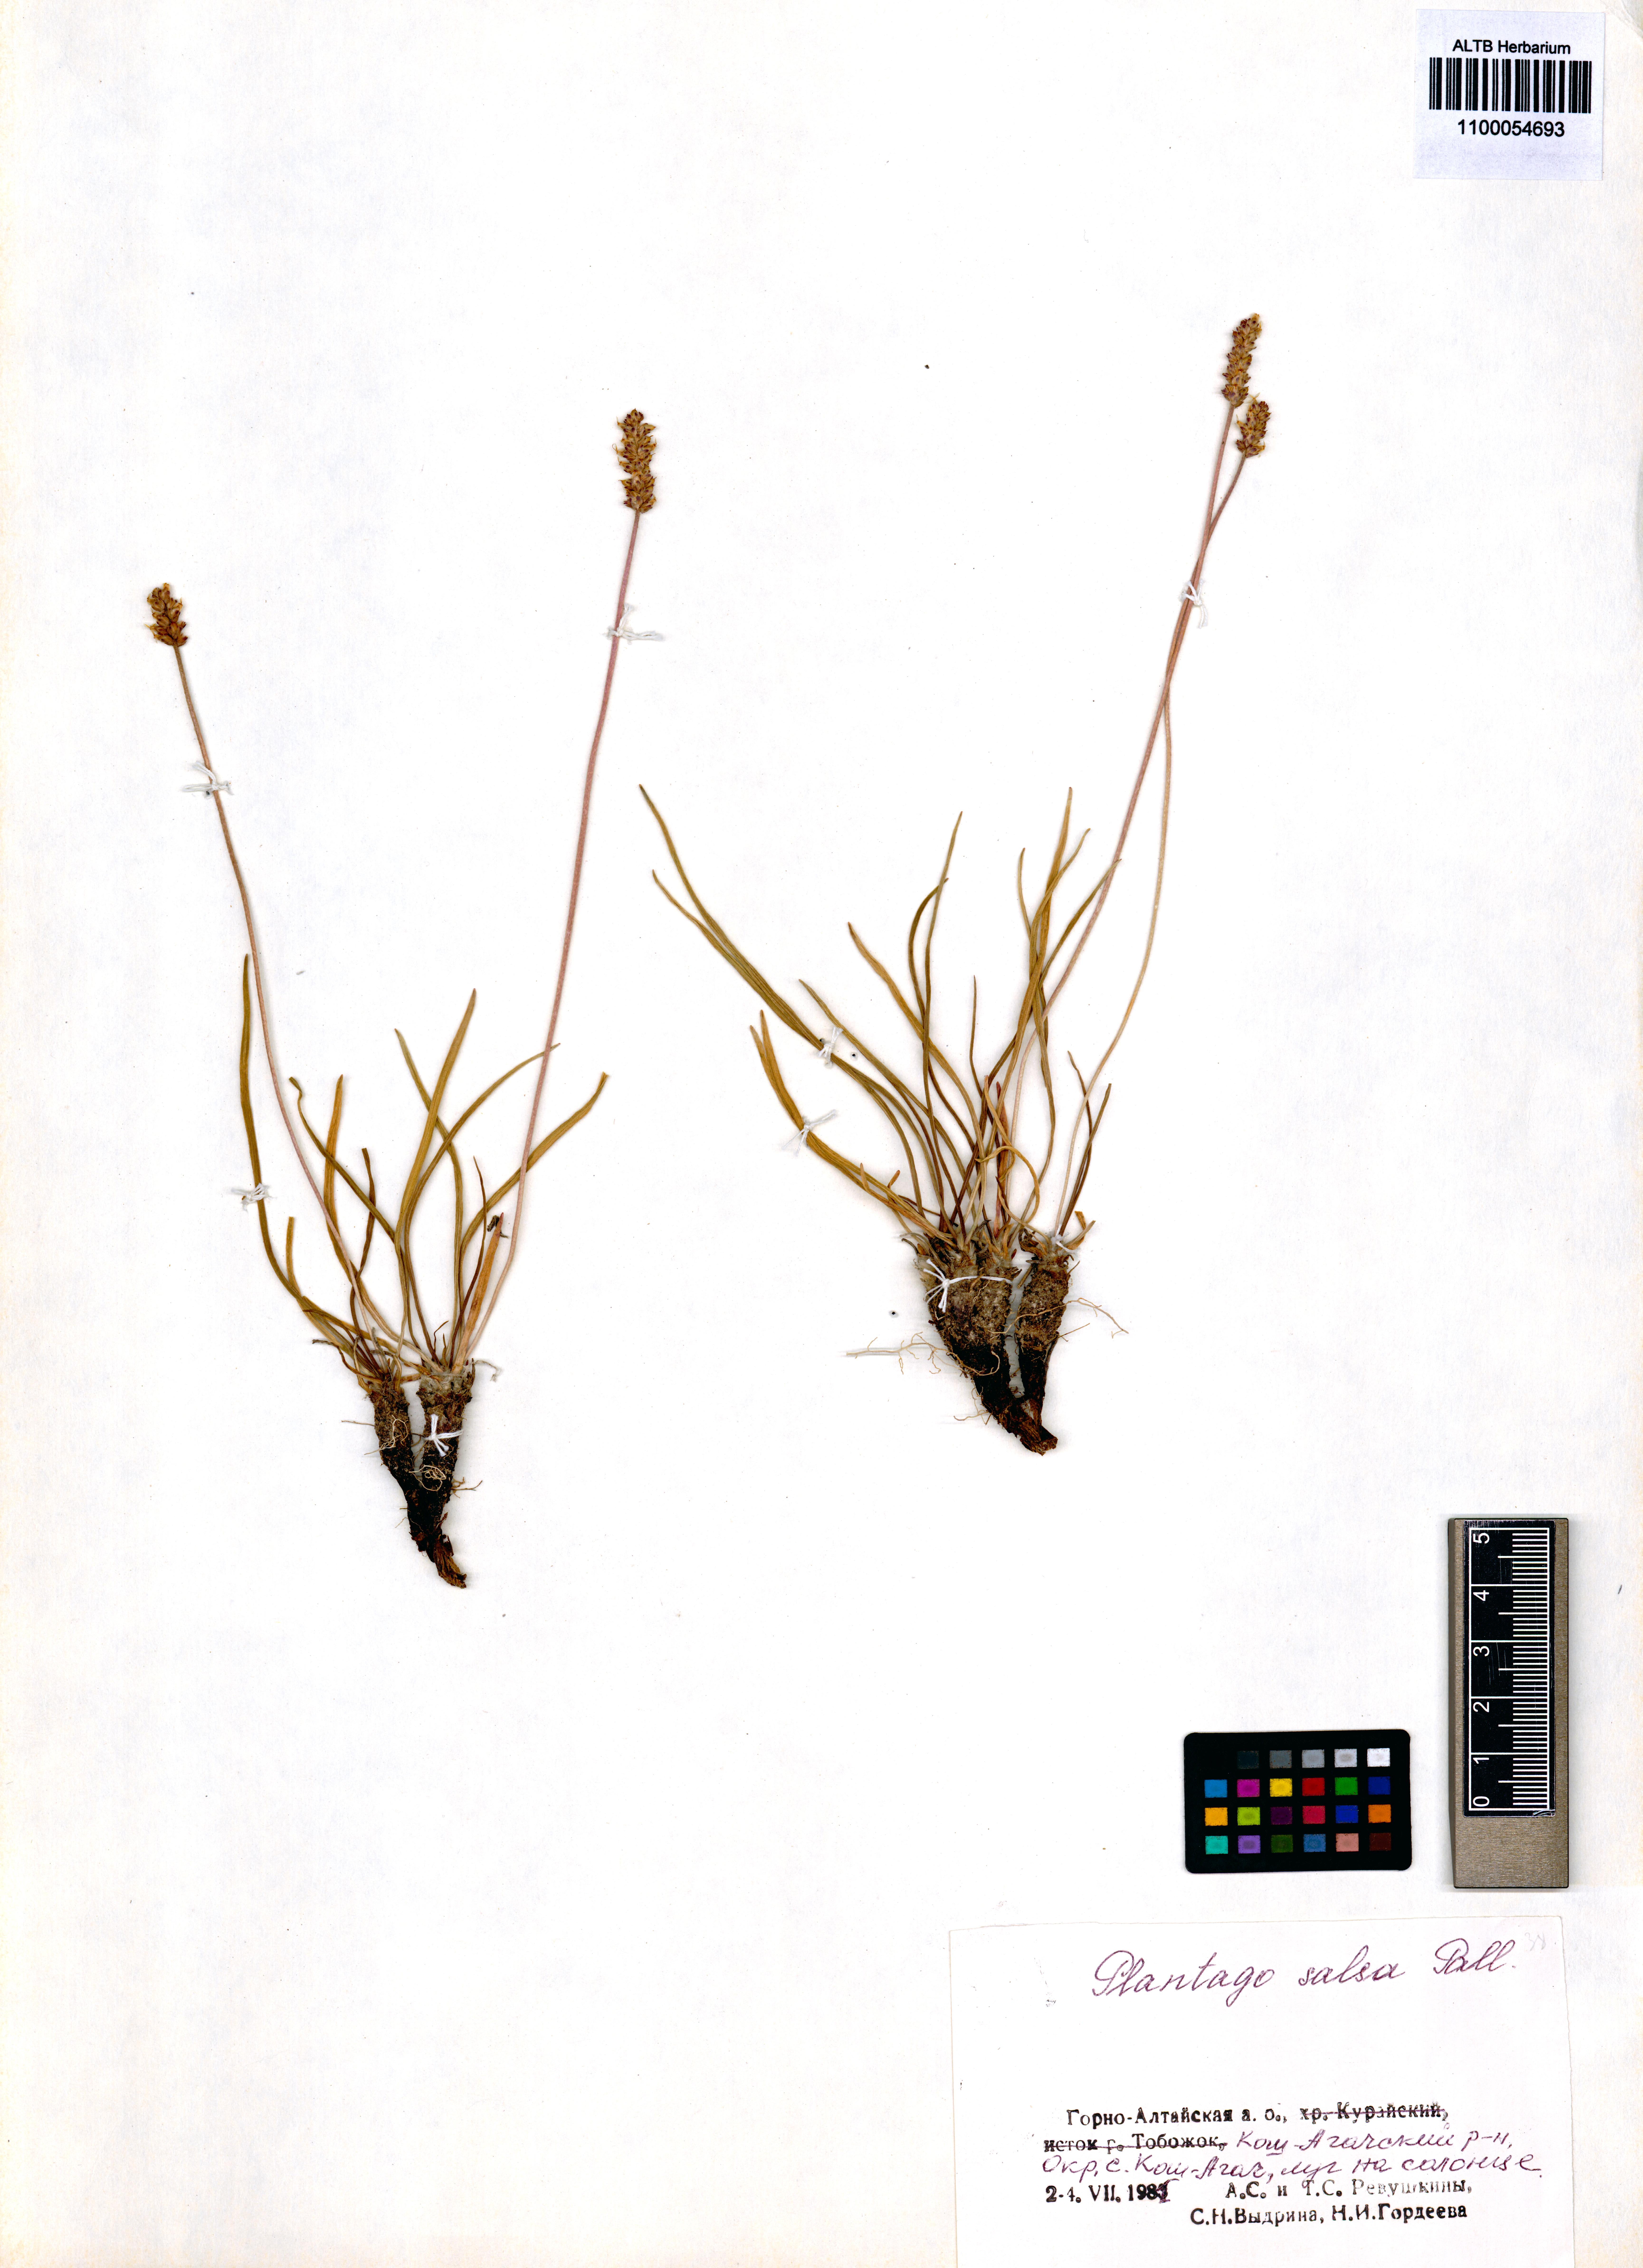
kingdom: Plantae
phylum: Tracheophyta
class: Magnoliopsida
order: Lamiales
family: Plantaginaceae
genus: Plantago
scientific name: Plantago salsa
